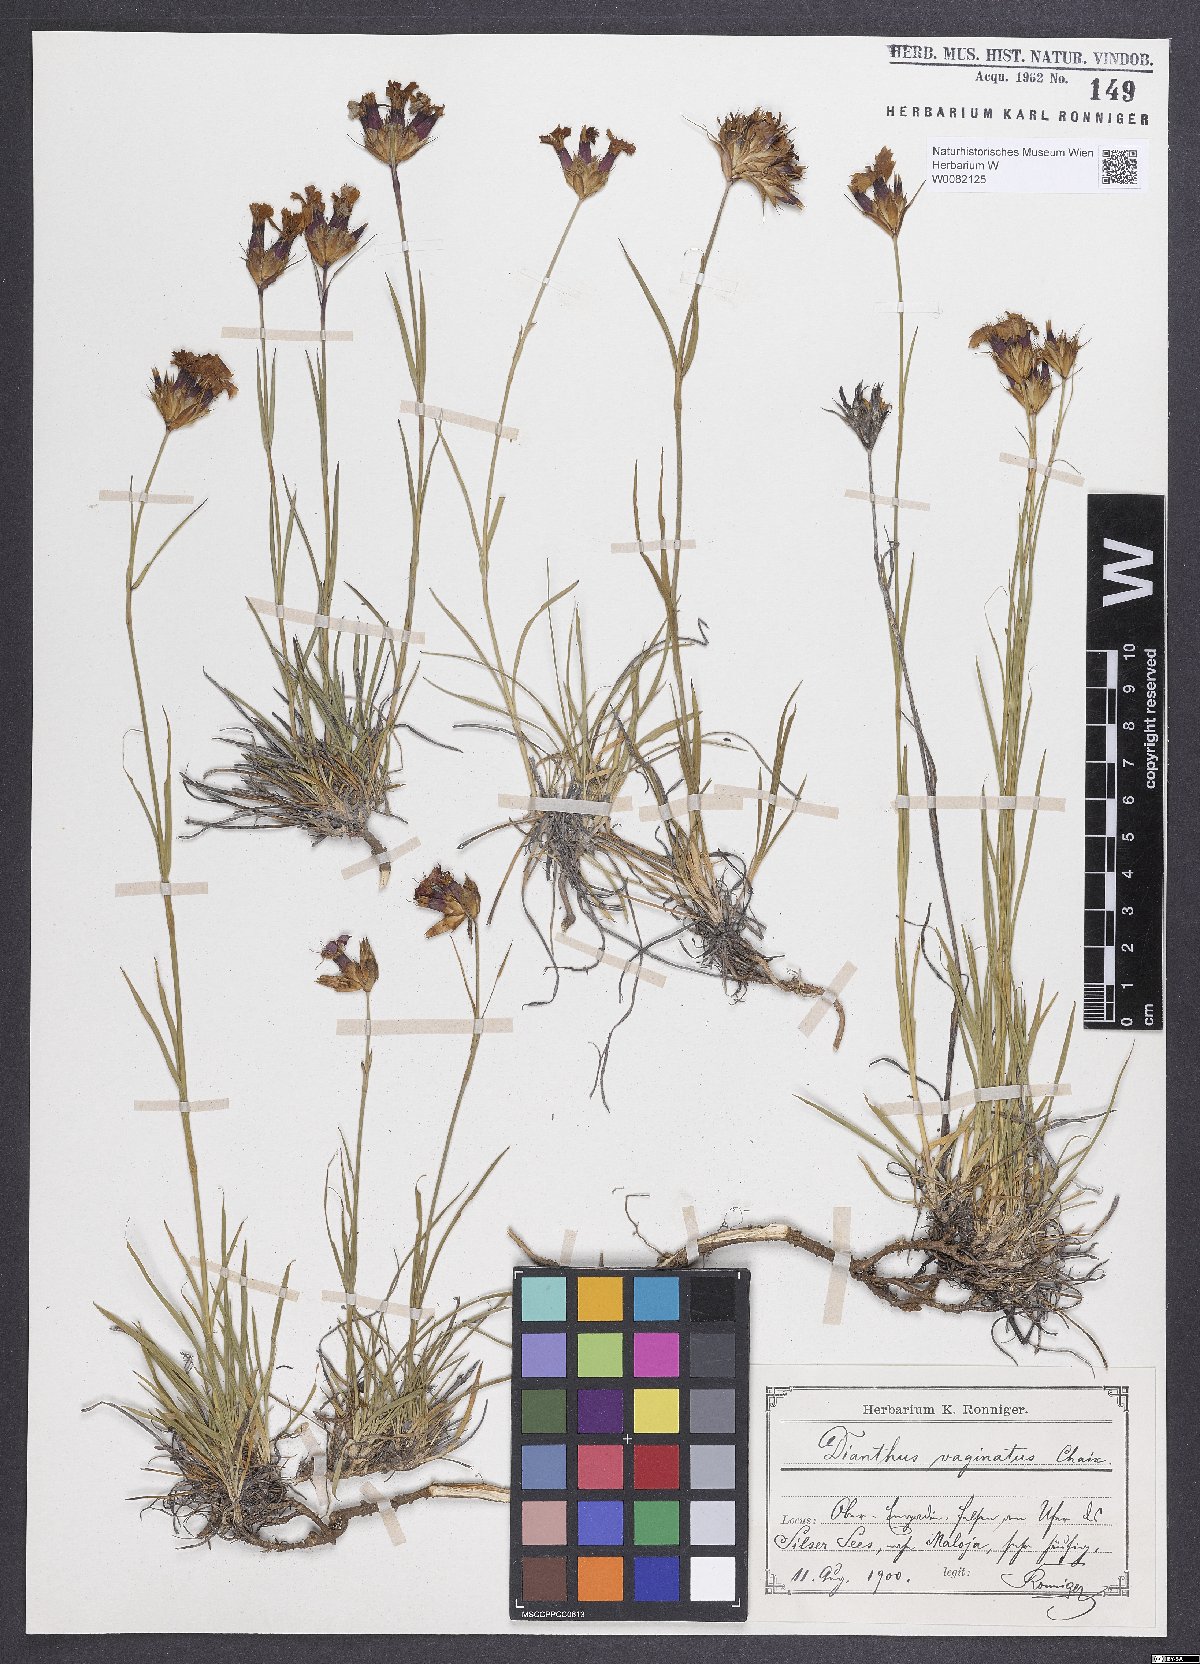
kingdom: Plantae
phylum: Tracheophyta
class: Magnoliopsida
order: Caryophyllales
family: Caryophyllaceae
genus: Dianthus
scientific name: Dianthus carthusianorum
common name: Carthusian pink
